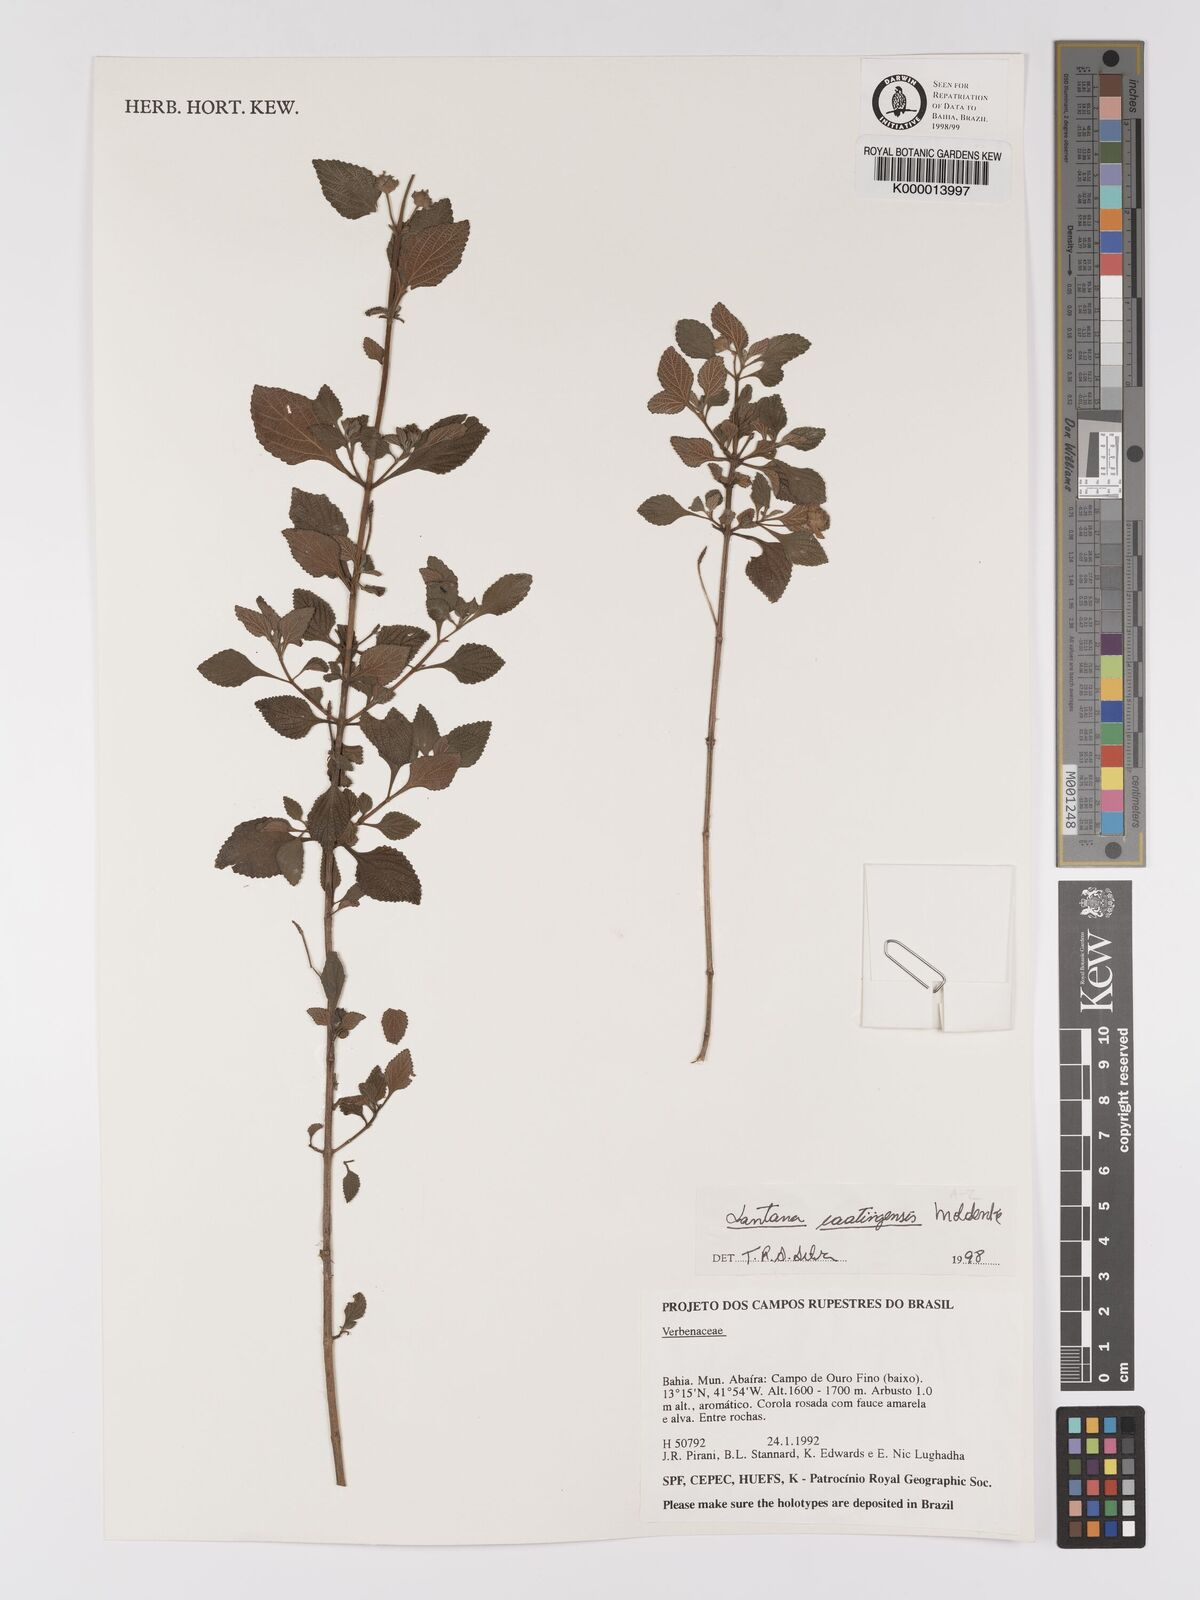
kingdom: Plantae
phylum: Tracheophyta
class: Magnoliopsida
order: Lamiales
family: Verbenaceae
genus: Lantana
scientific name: Lantana caatingensis
